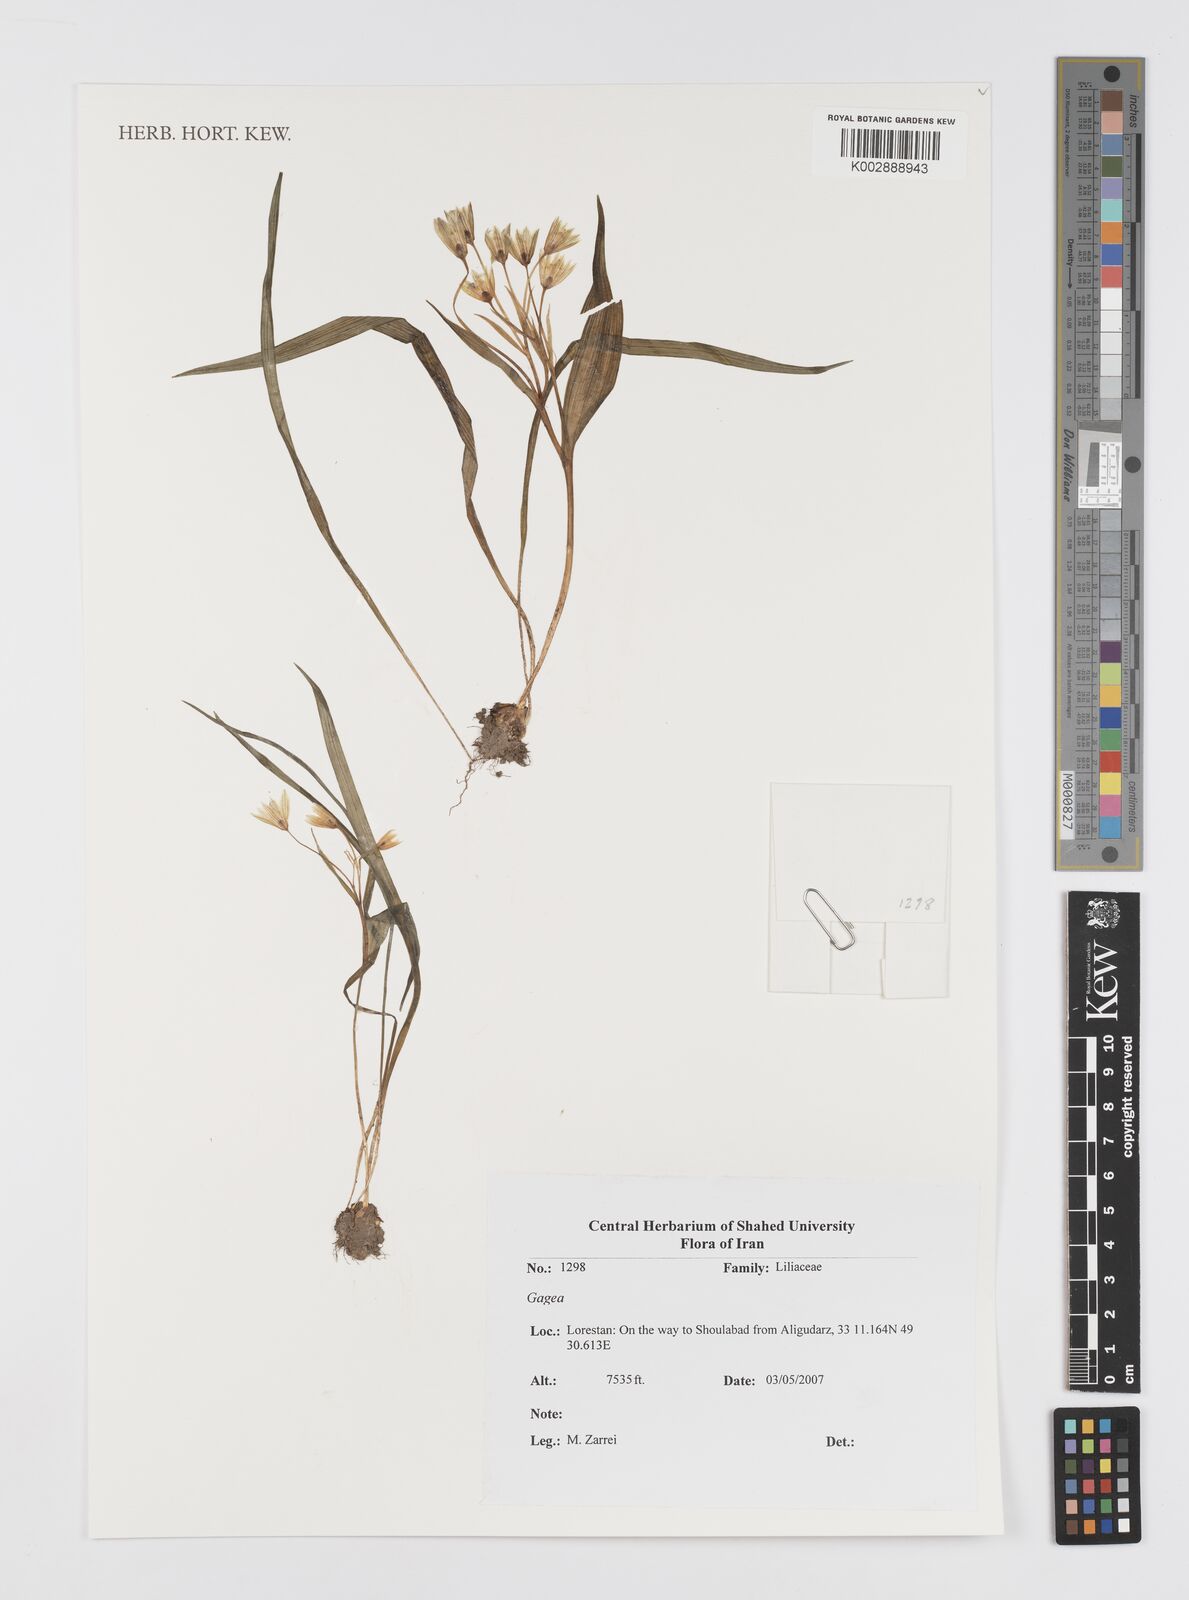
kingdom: Plantae
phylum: Tracheophyta
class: Liliopsida
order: Liliales
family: Liliaceae
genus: Gagea
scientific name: Gagea
